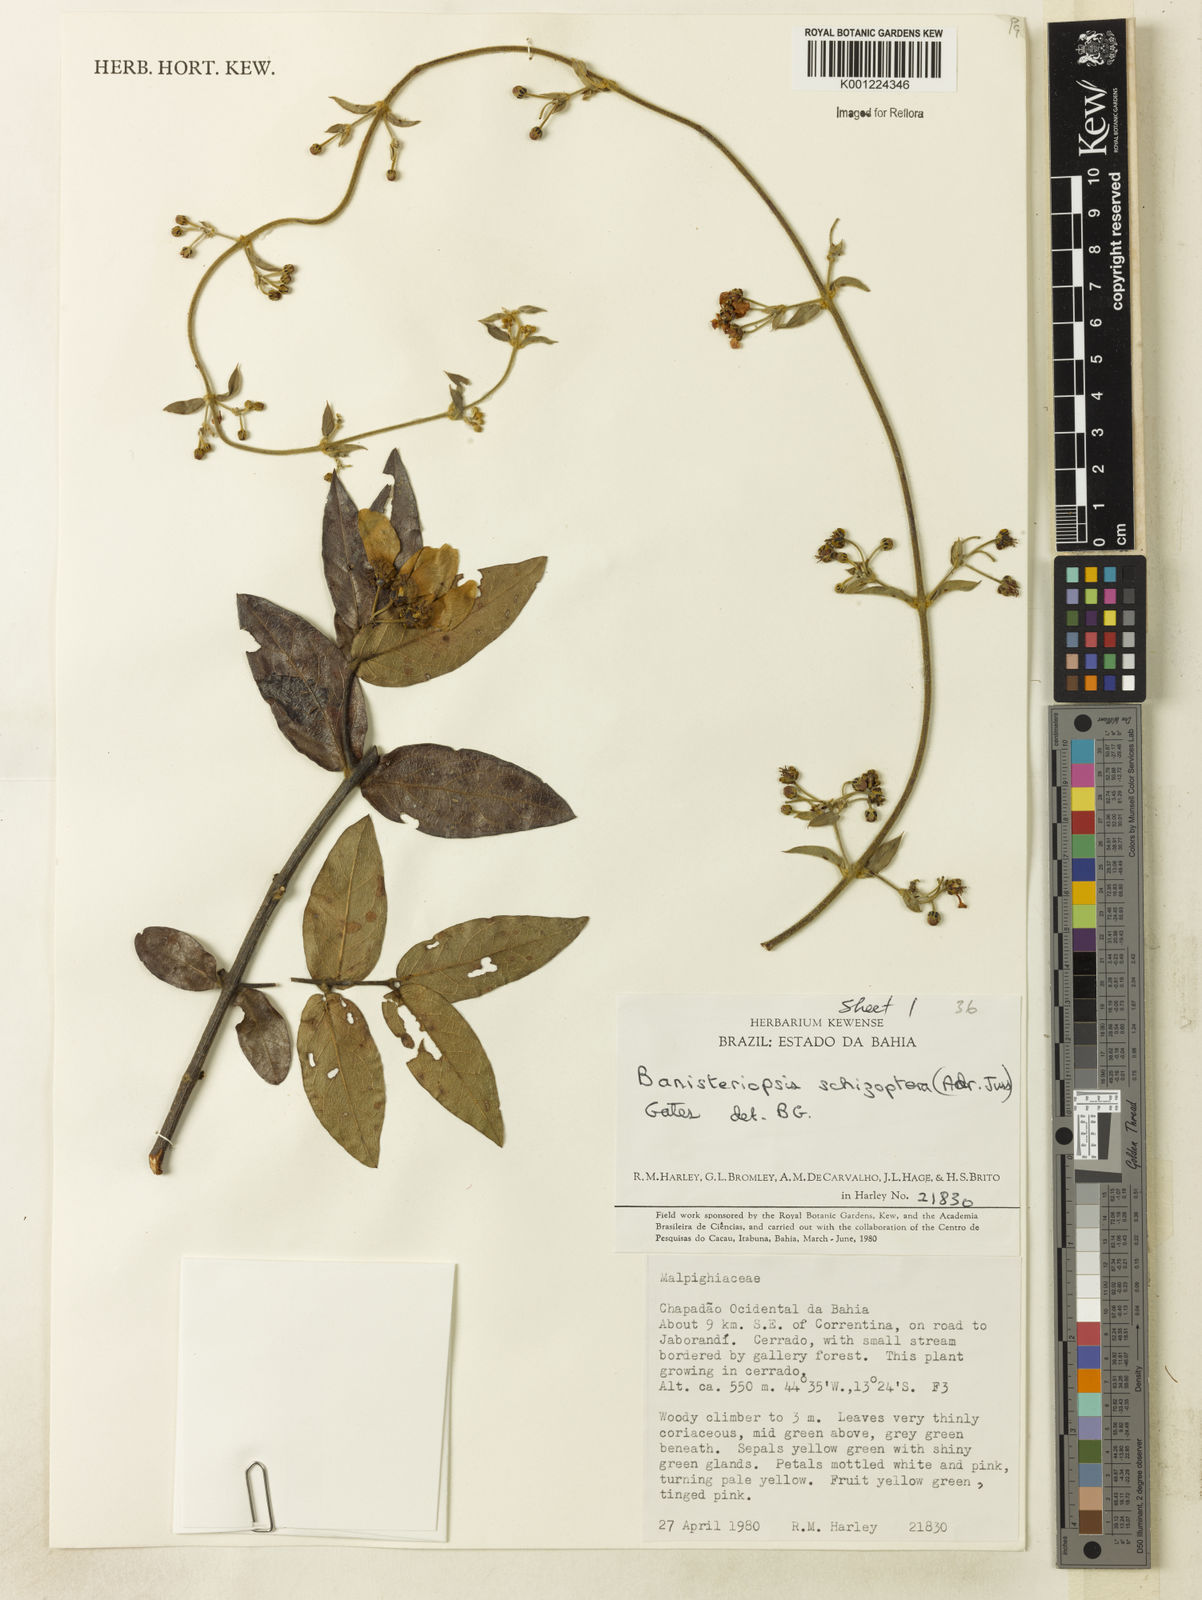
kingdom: Plantae
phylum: Tracheophyta
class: Magnoliopsida
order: Malpighiales
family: Malpighiaceae
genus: Banisteriopsis
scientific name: Banisteriopsis schizoptera
